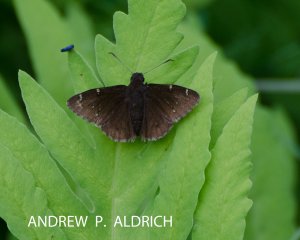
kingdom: Animalia
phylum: Arthropoda
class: Insecta
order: Lepidoptera
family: Hesperiidae
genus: Autochton
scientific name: Autochton
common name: Northern Cloudywing
